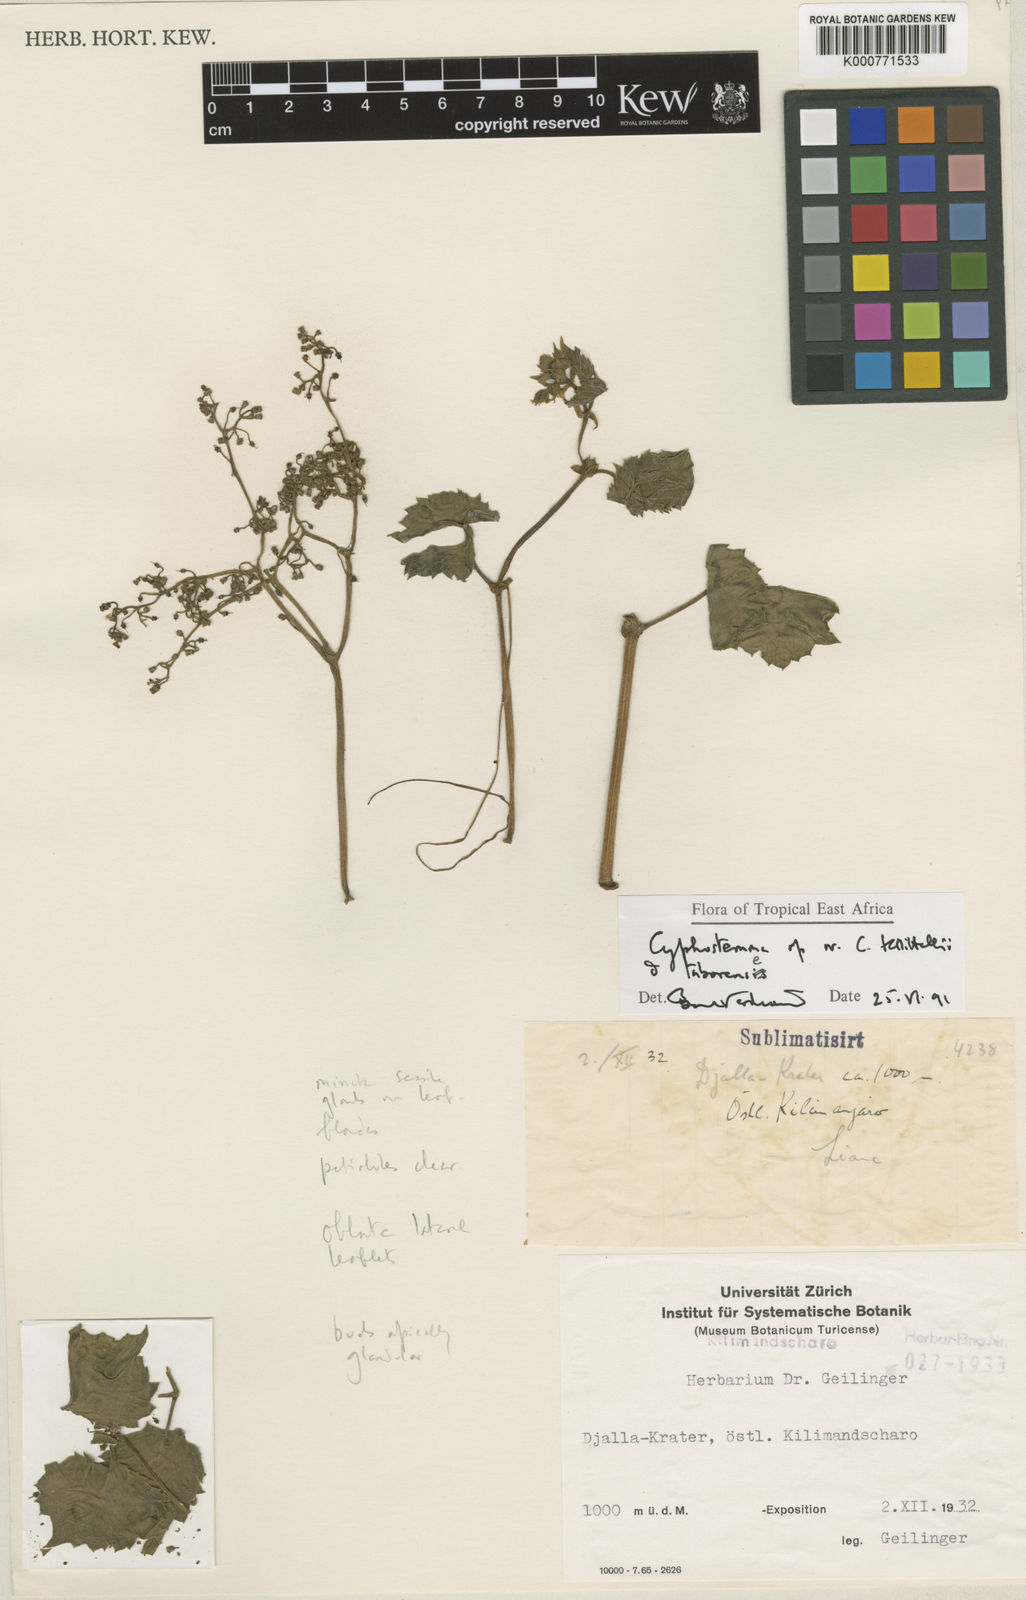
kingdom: Plantae
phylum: Tracheophyta
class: Magnoliopsida
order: Vitales
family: Vitaceae
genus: Cyphostemma
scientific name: Cyphostemma
